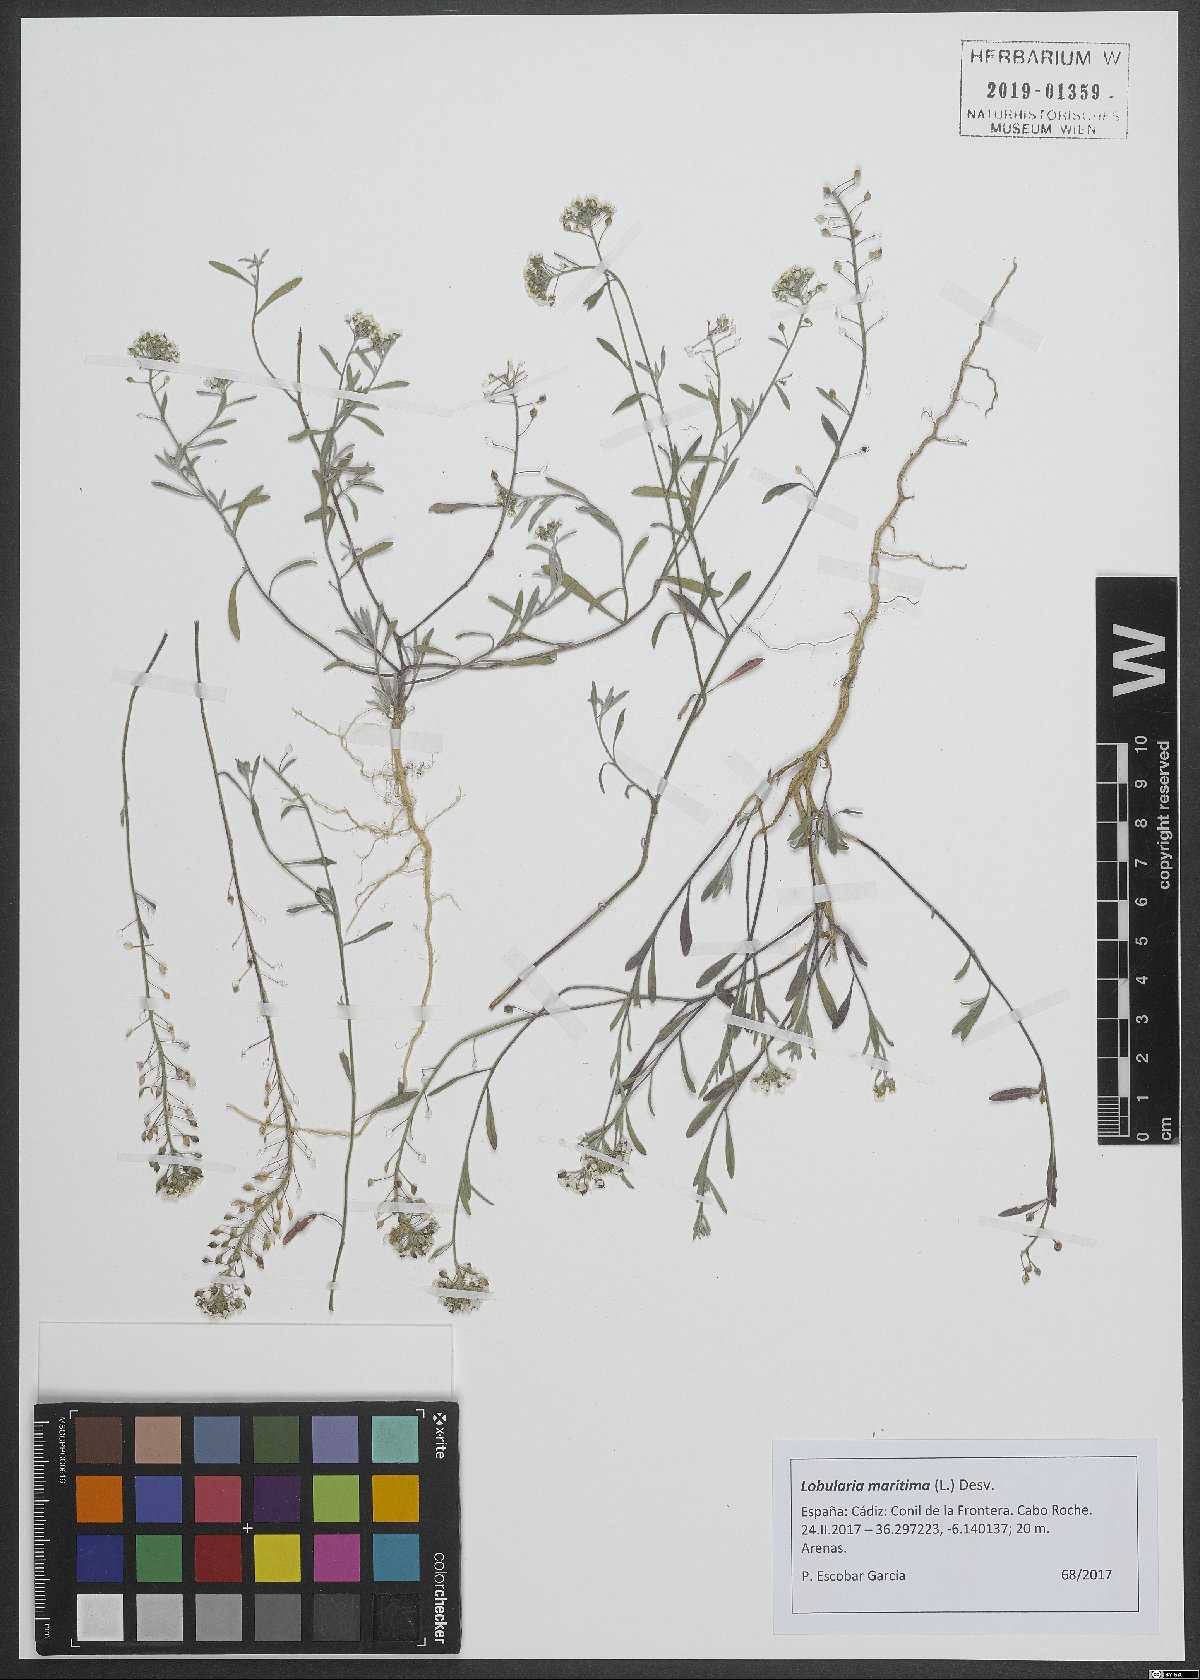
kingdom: Plantae
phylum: Tracheophyta
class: Magnoliopsida
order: Brassicales
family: Brassicaceae
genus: Lobularia
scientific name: Lobularia maritima
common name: Sweet alison
